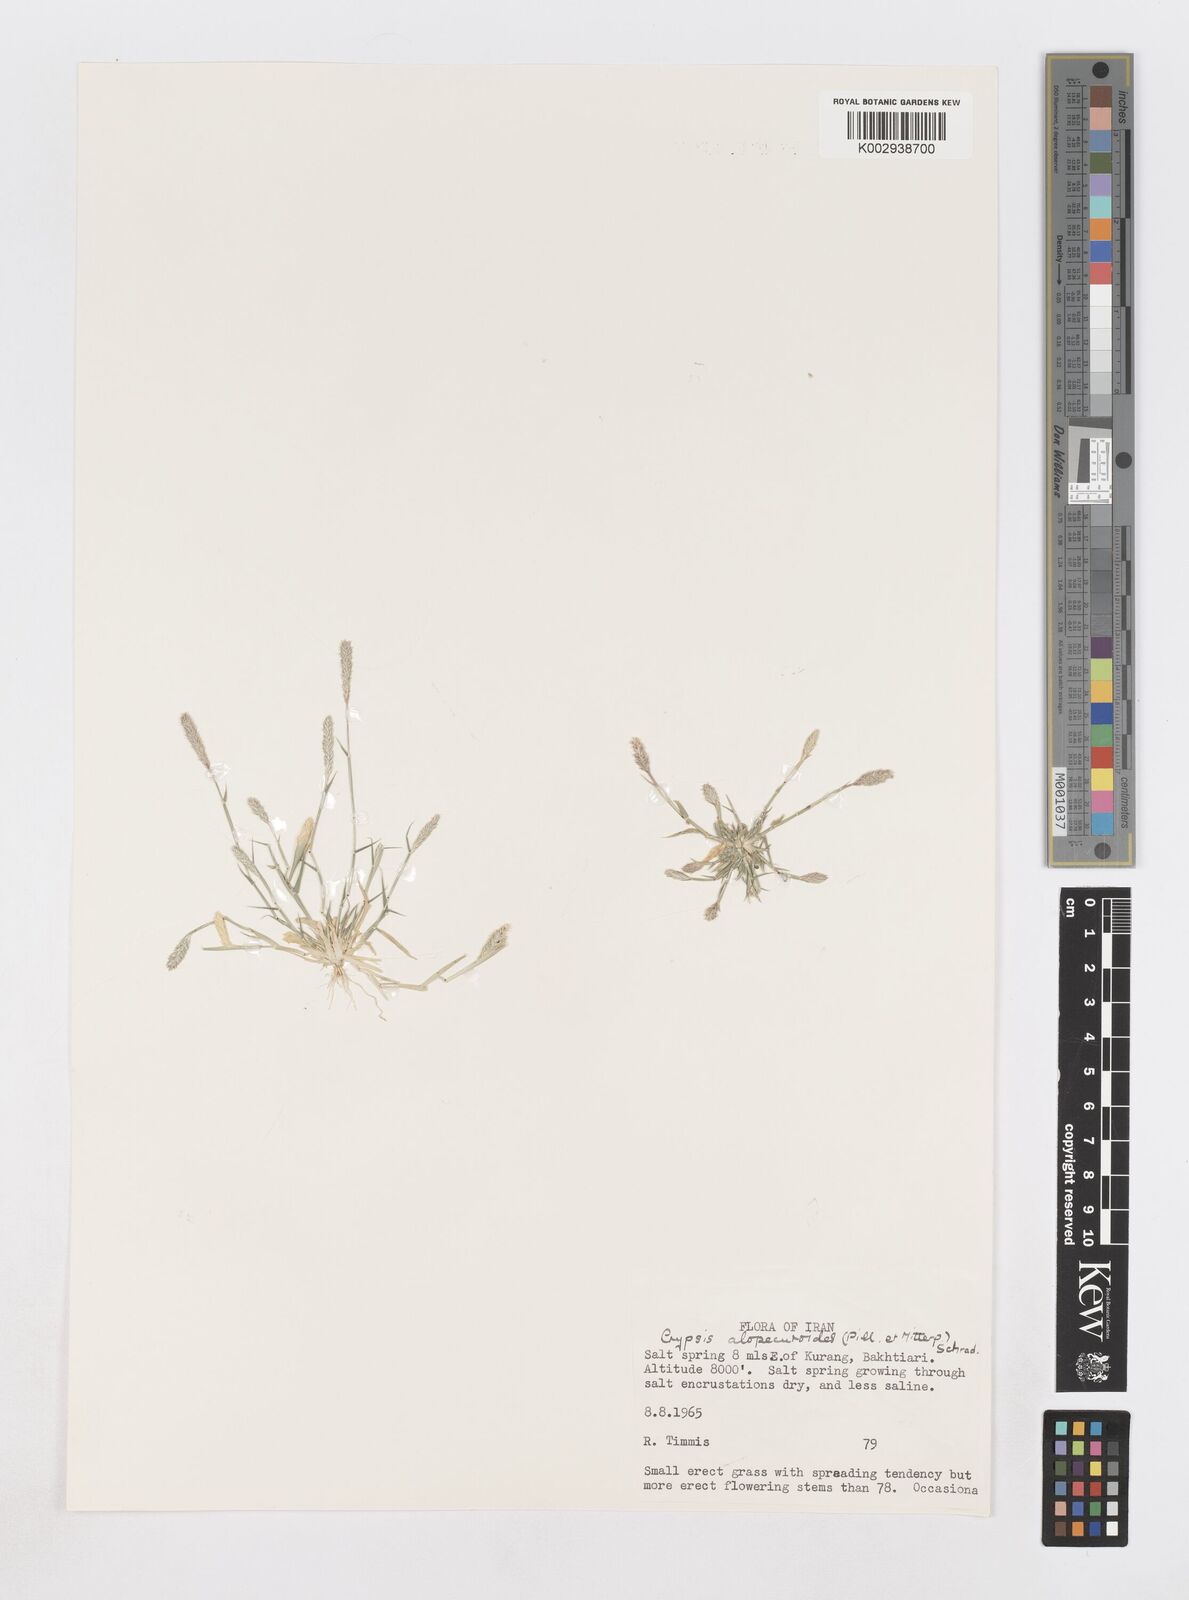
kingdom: Plantae
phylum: Tracheophyta
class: Liliopsida
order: Poales
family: Poaceae
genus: Sporobolus
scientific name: Sporobolus alopecuroides
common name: Foxtail pricklegrass
